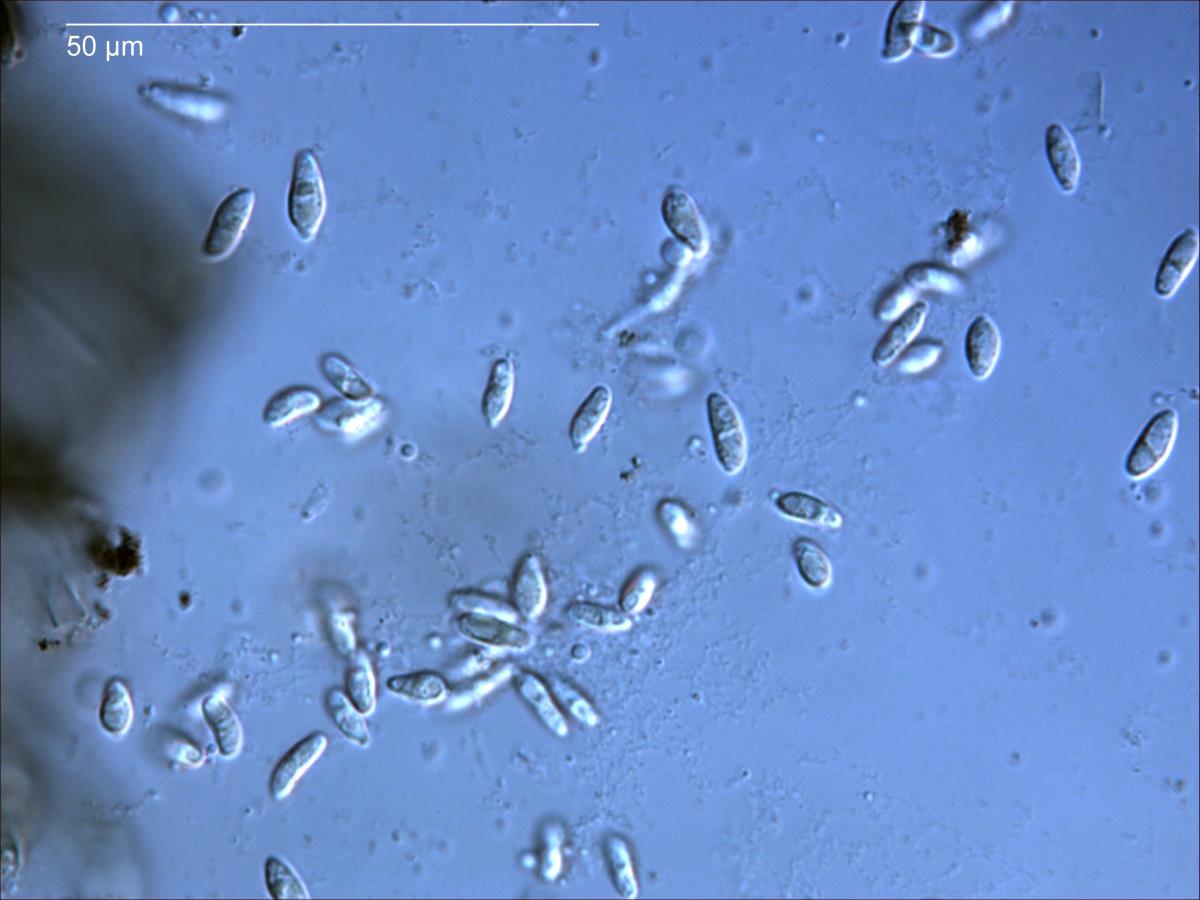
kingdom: Fungi
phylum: Ascomycota
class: Sordariomycetes
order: Diaporthales
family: Melanconiellaceae
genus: Microascospora
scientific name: Microascospora
